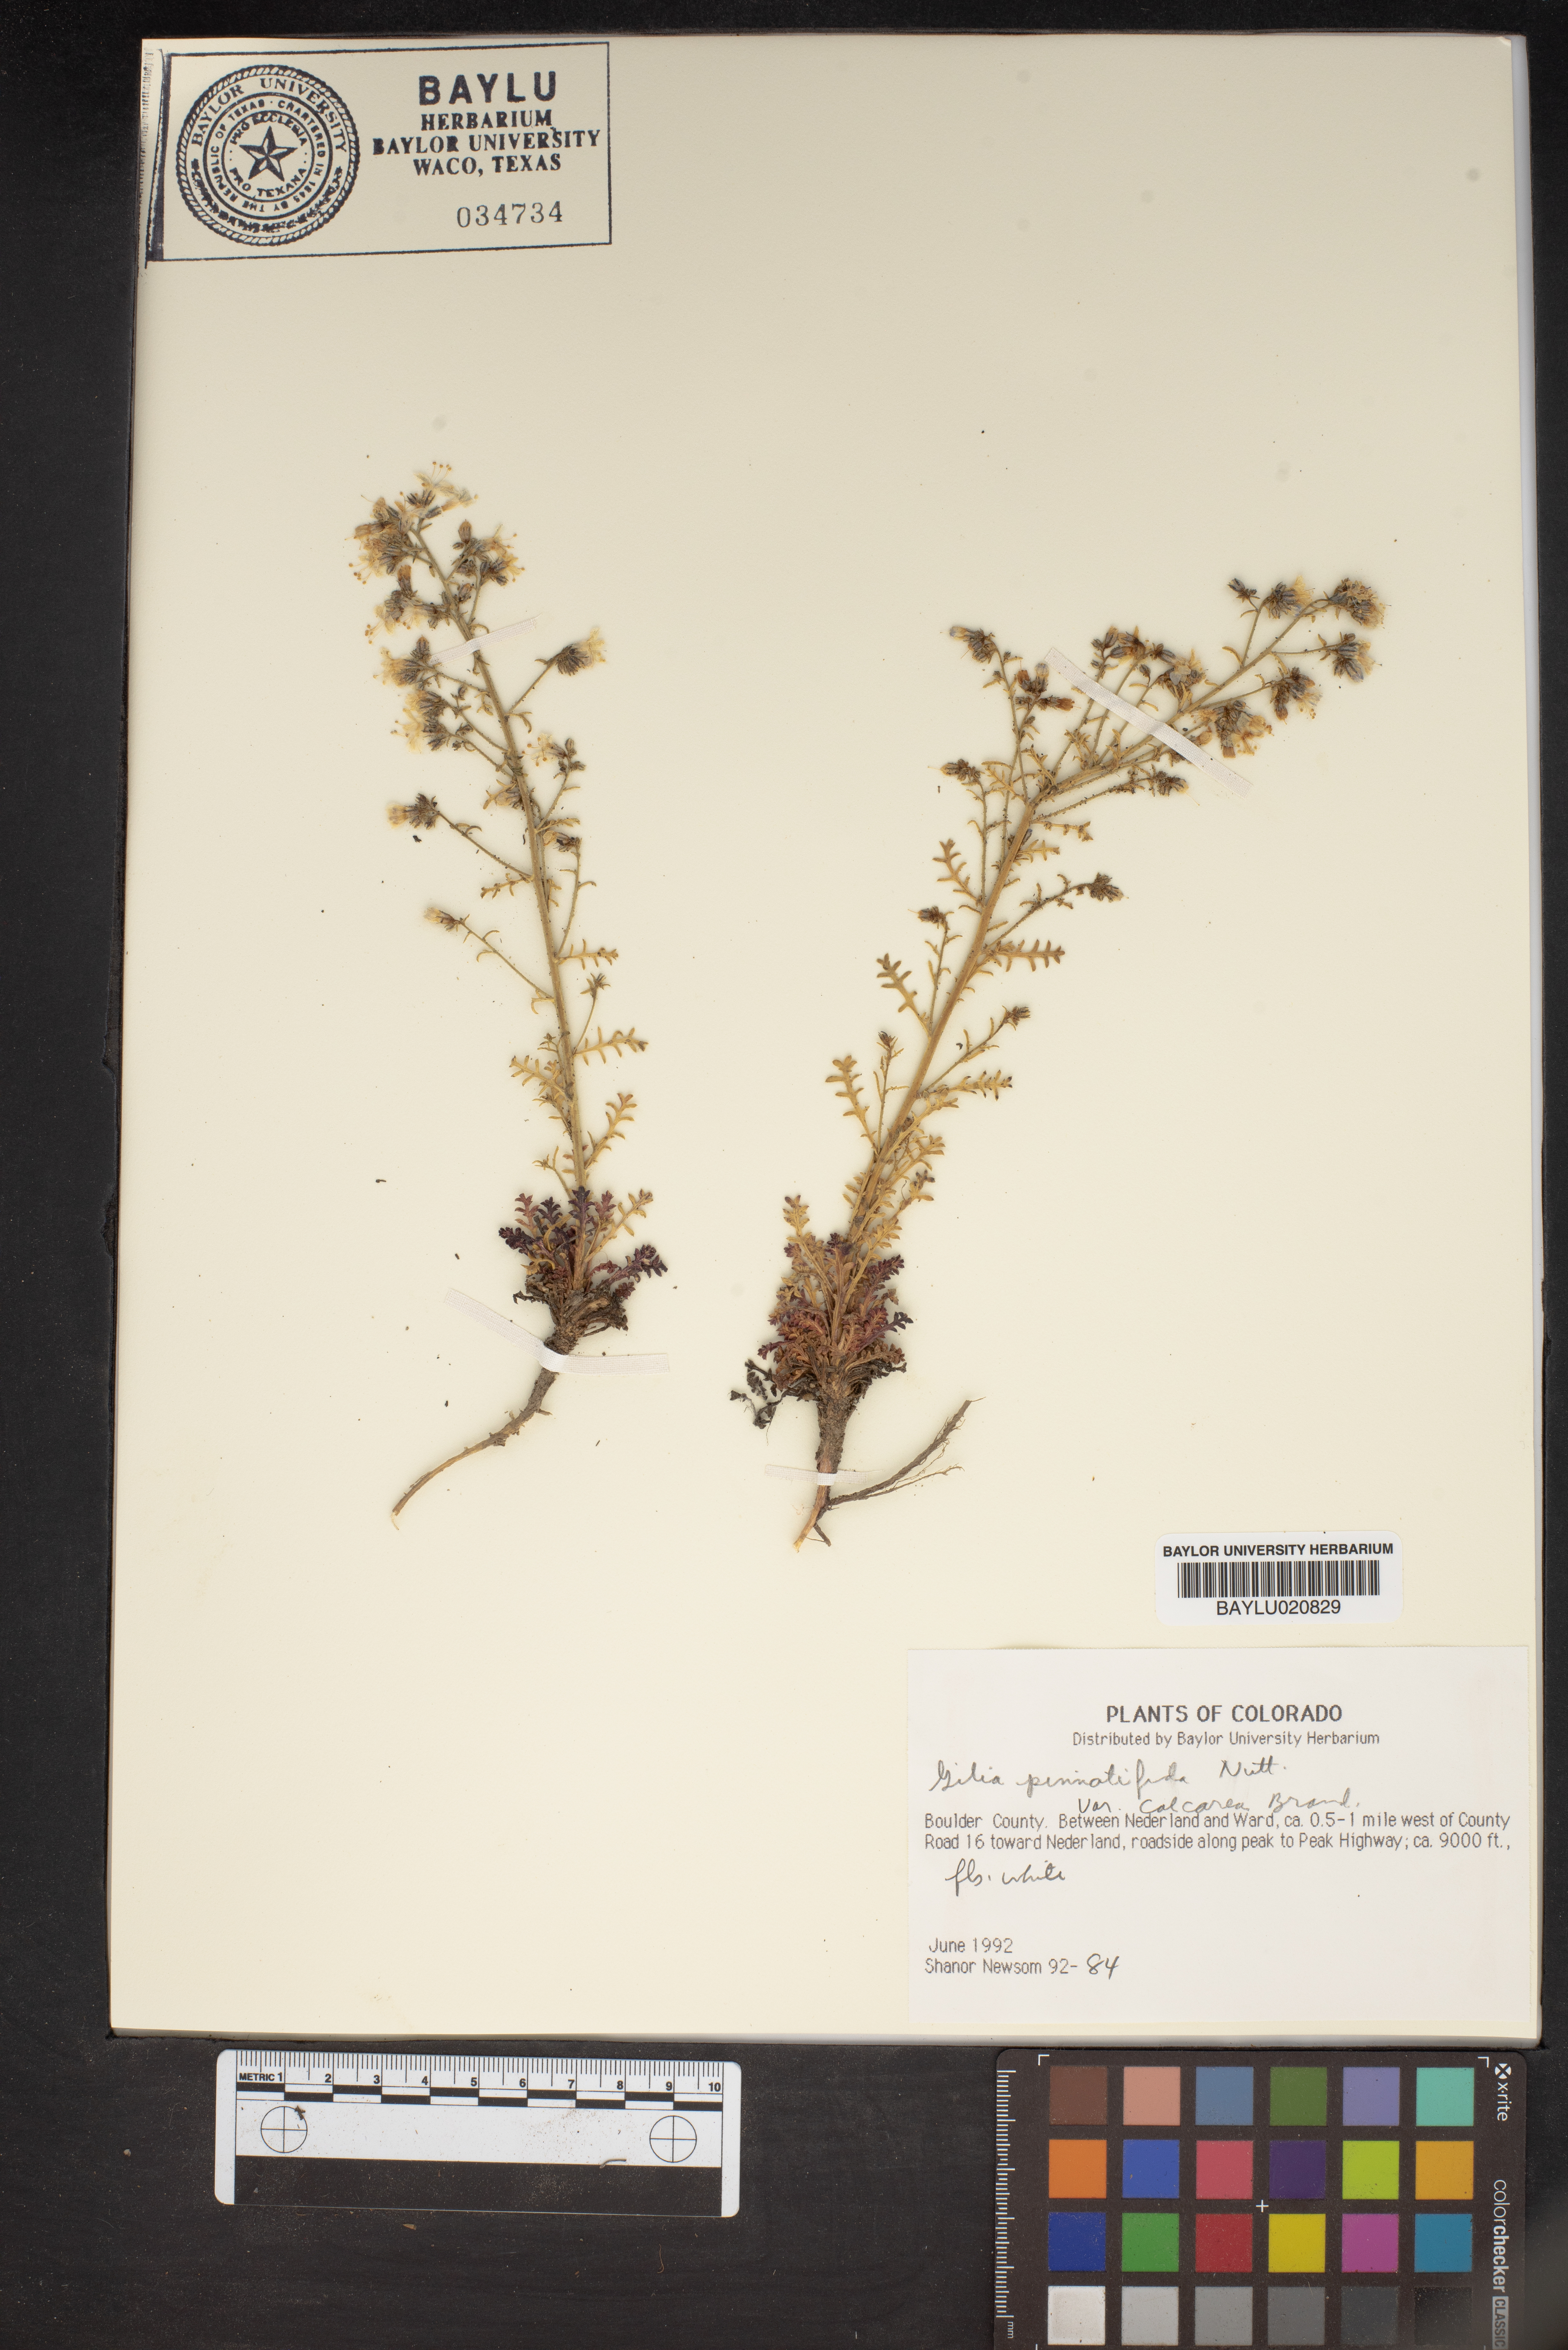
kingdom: Plantae
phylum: Tracheophyta
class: Magnoliopsida
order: Ericales
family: Polemoniaceae
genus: Aliciella
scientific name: Aliciella pinnatifida
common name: Sticky gilia
